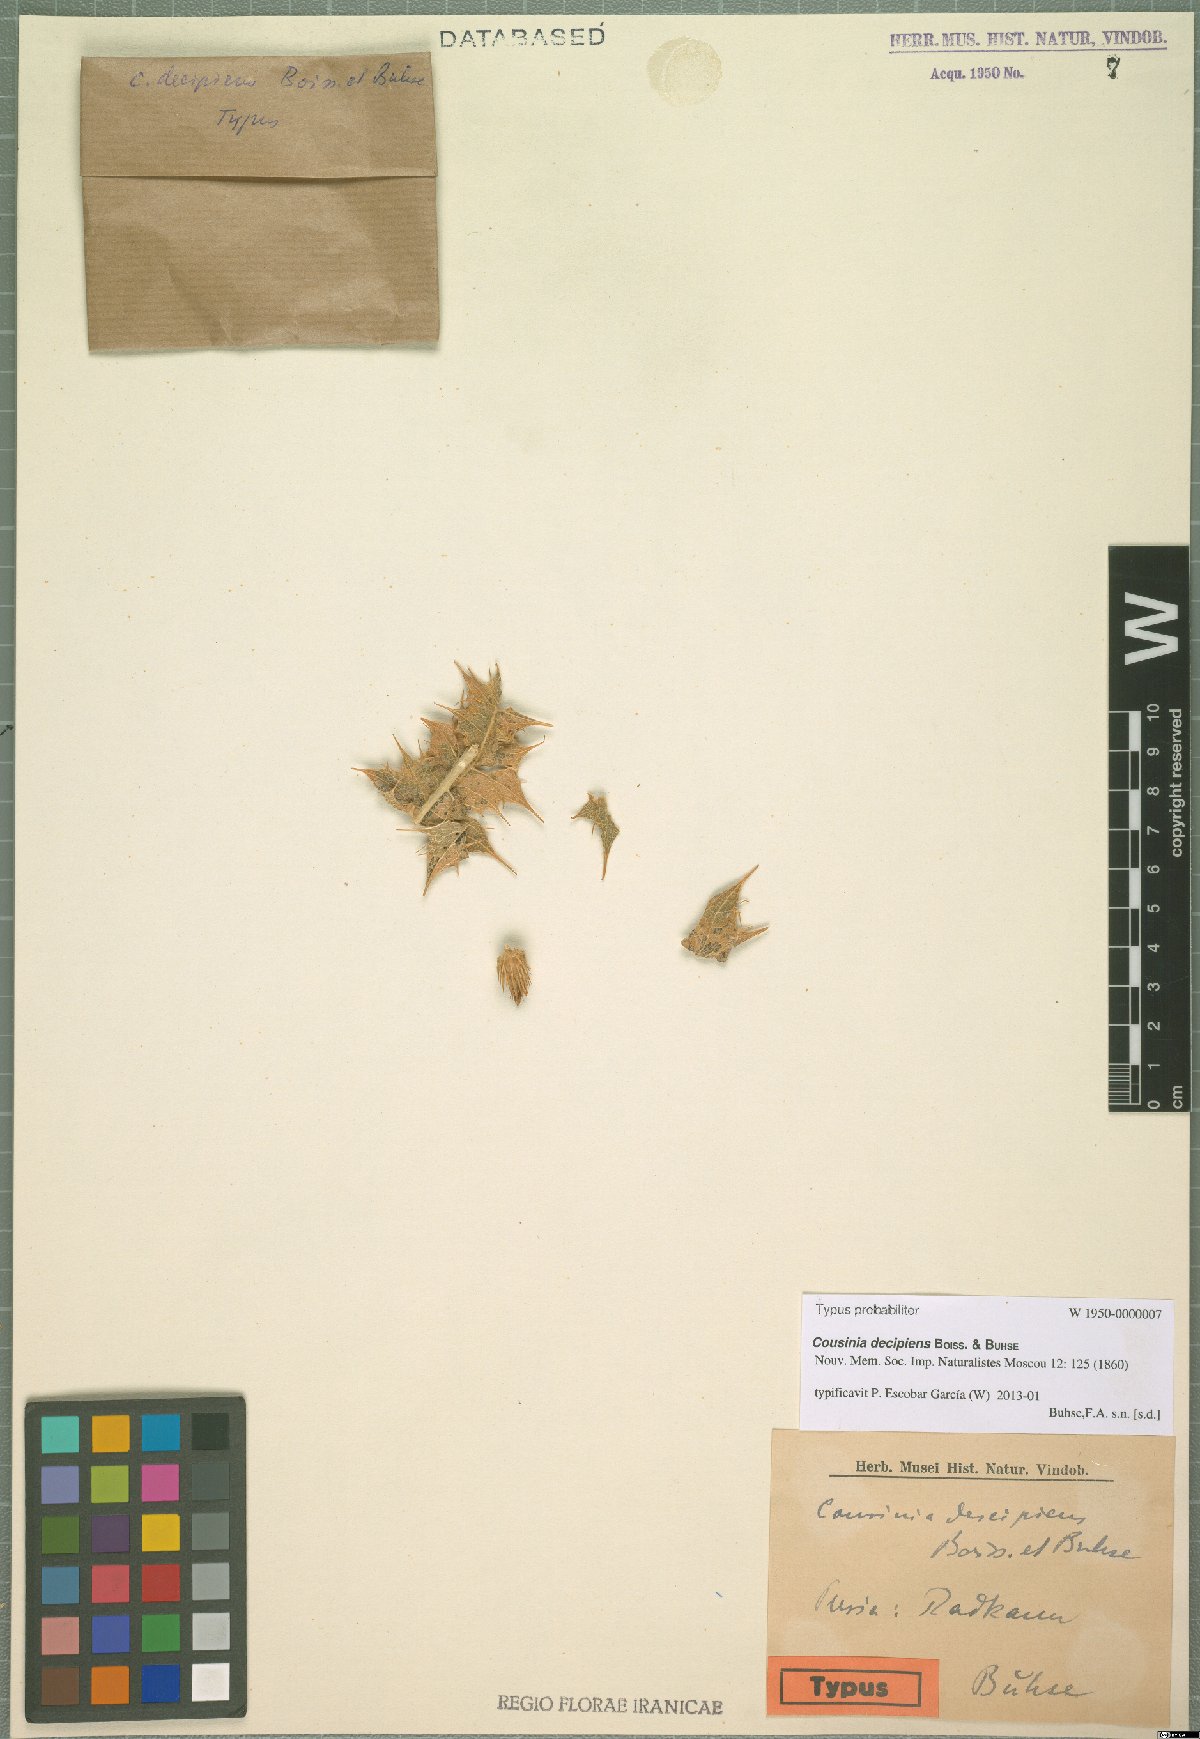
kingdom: Plantae
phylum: Tracheophyta
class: Magnoliopsida
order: Asterales
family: Asteraceae
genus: Cousinia
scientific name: Cousinia decipiens
